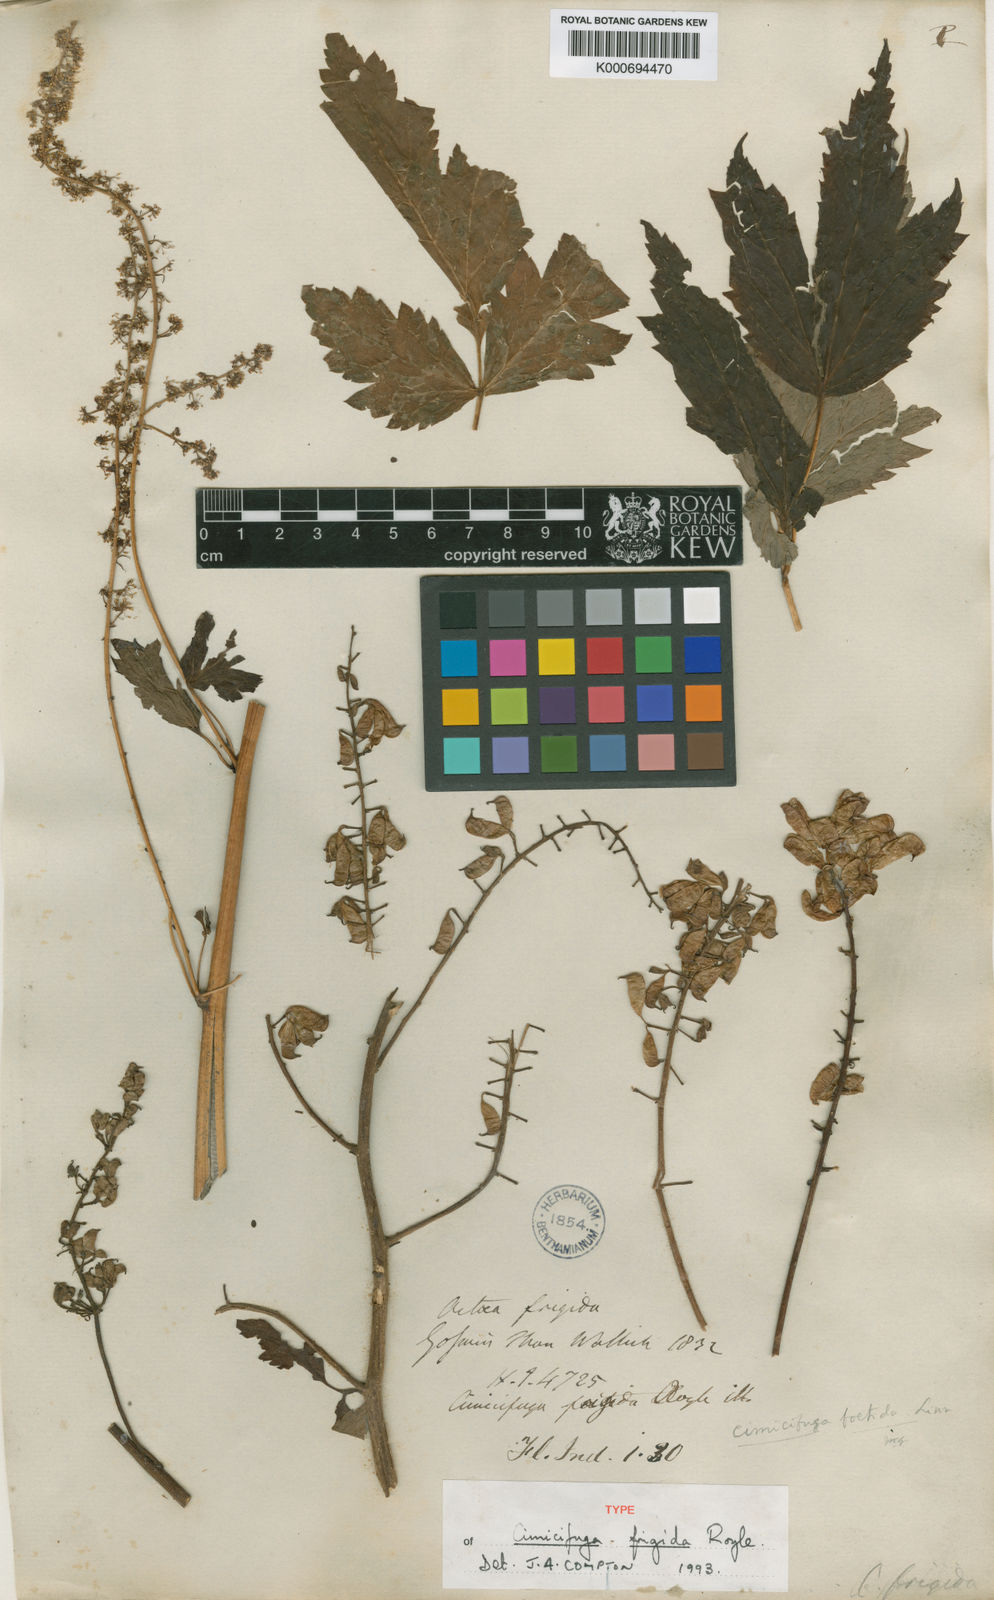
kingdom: Plantae
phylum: Tracheophyta
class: Magnoliopsida
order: Ranunculales
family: Ranunculaceae
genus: Actaea
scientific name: Actaea cimicifuga
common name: Chinese cimicifuga
